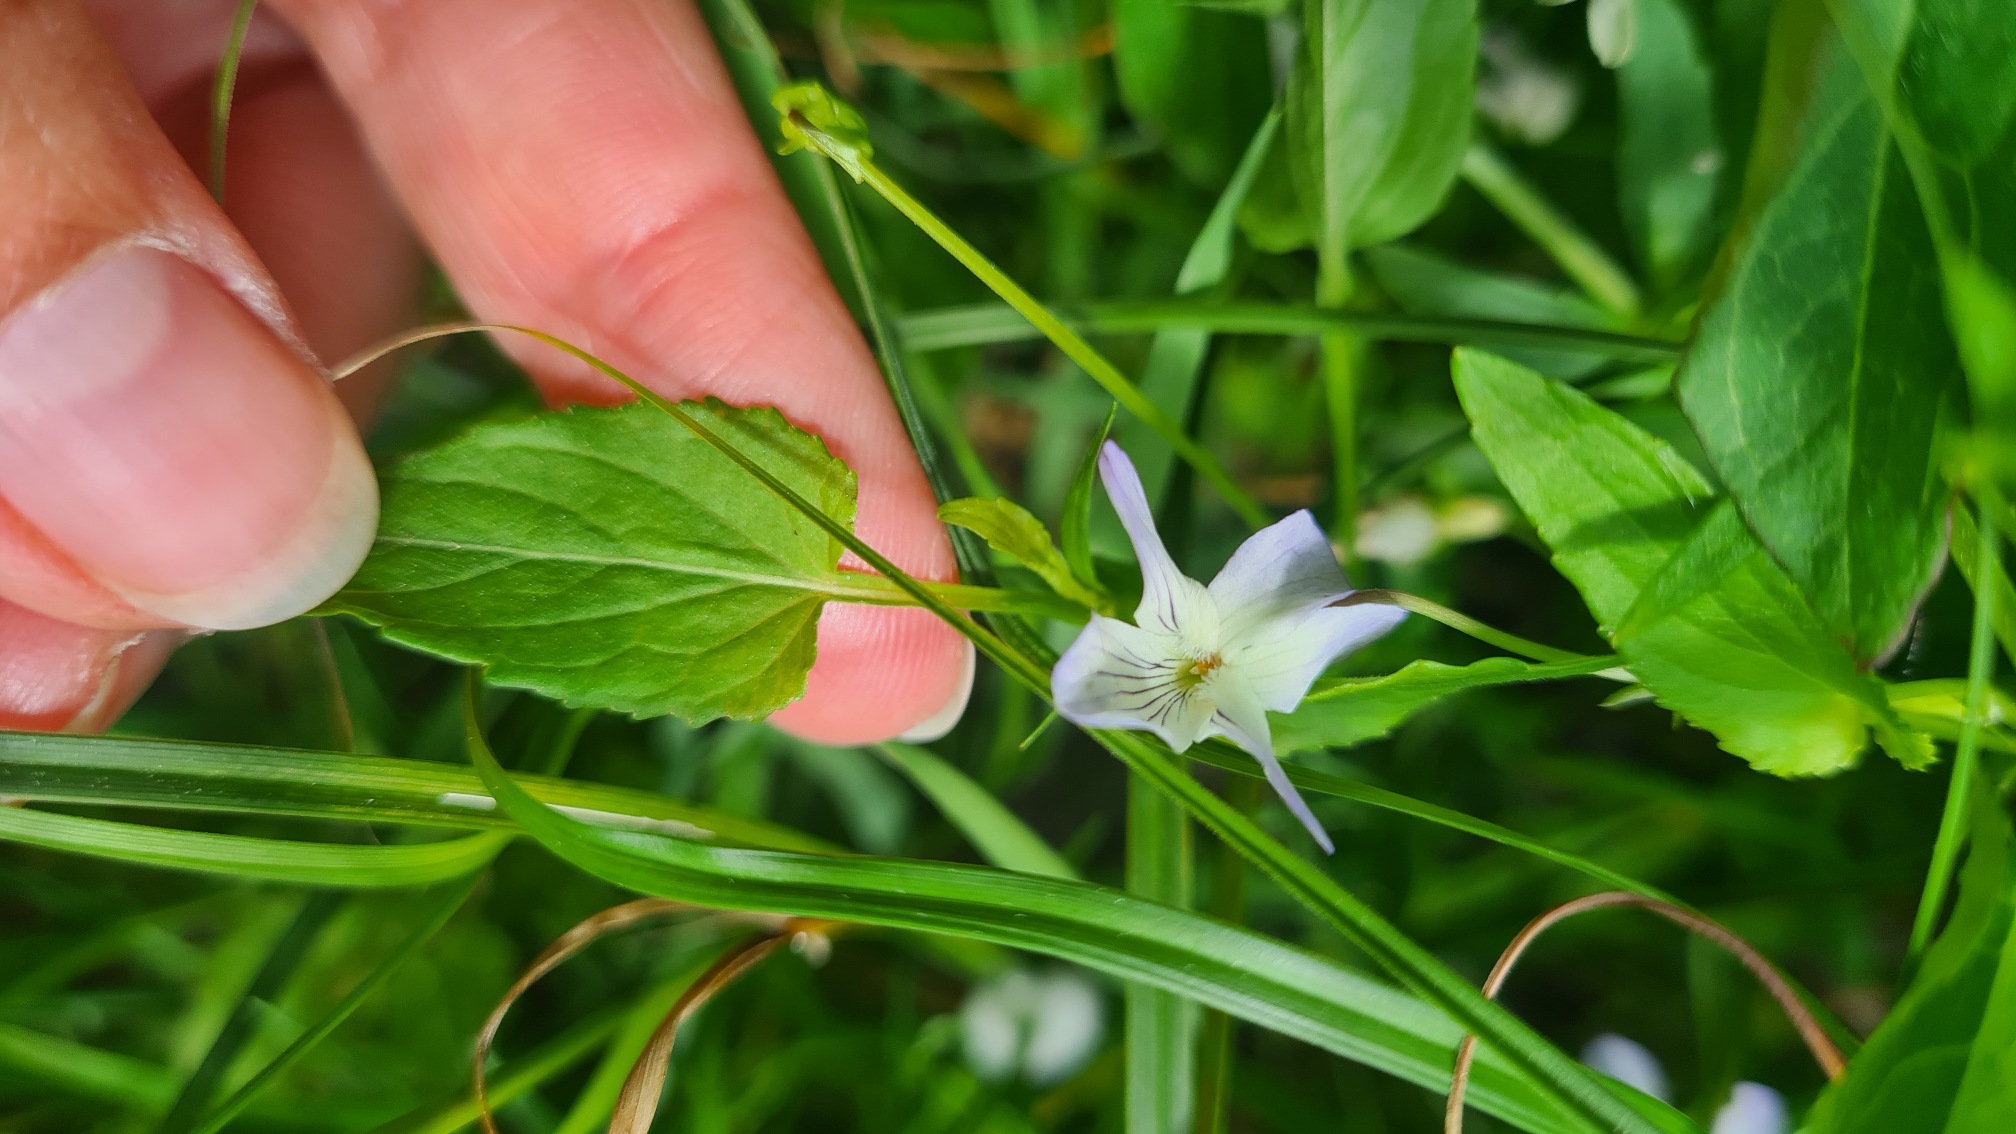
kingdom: Plantae
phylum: Tracheophyta
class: Magnoliopsida
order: Malpighiales
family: Violaceae
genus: Viola
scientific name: Viola stagnina
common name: Rank viol
